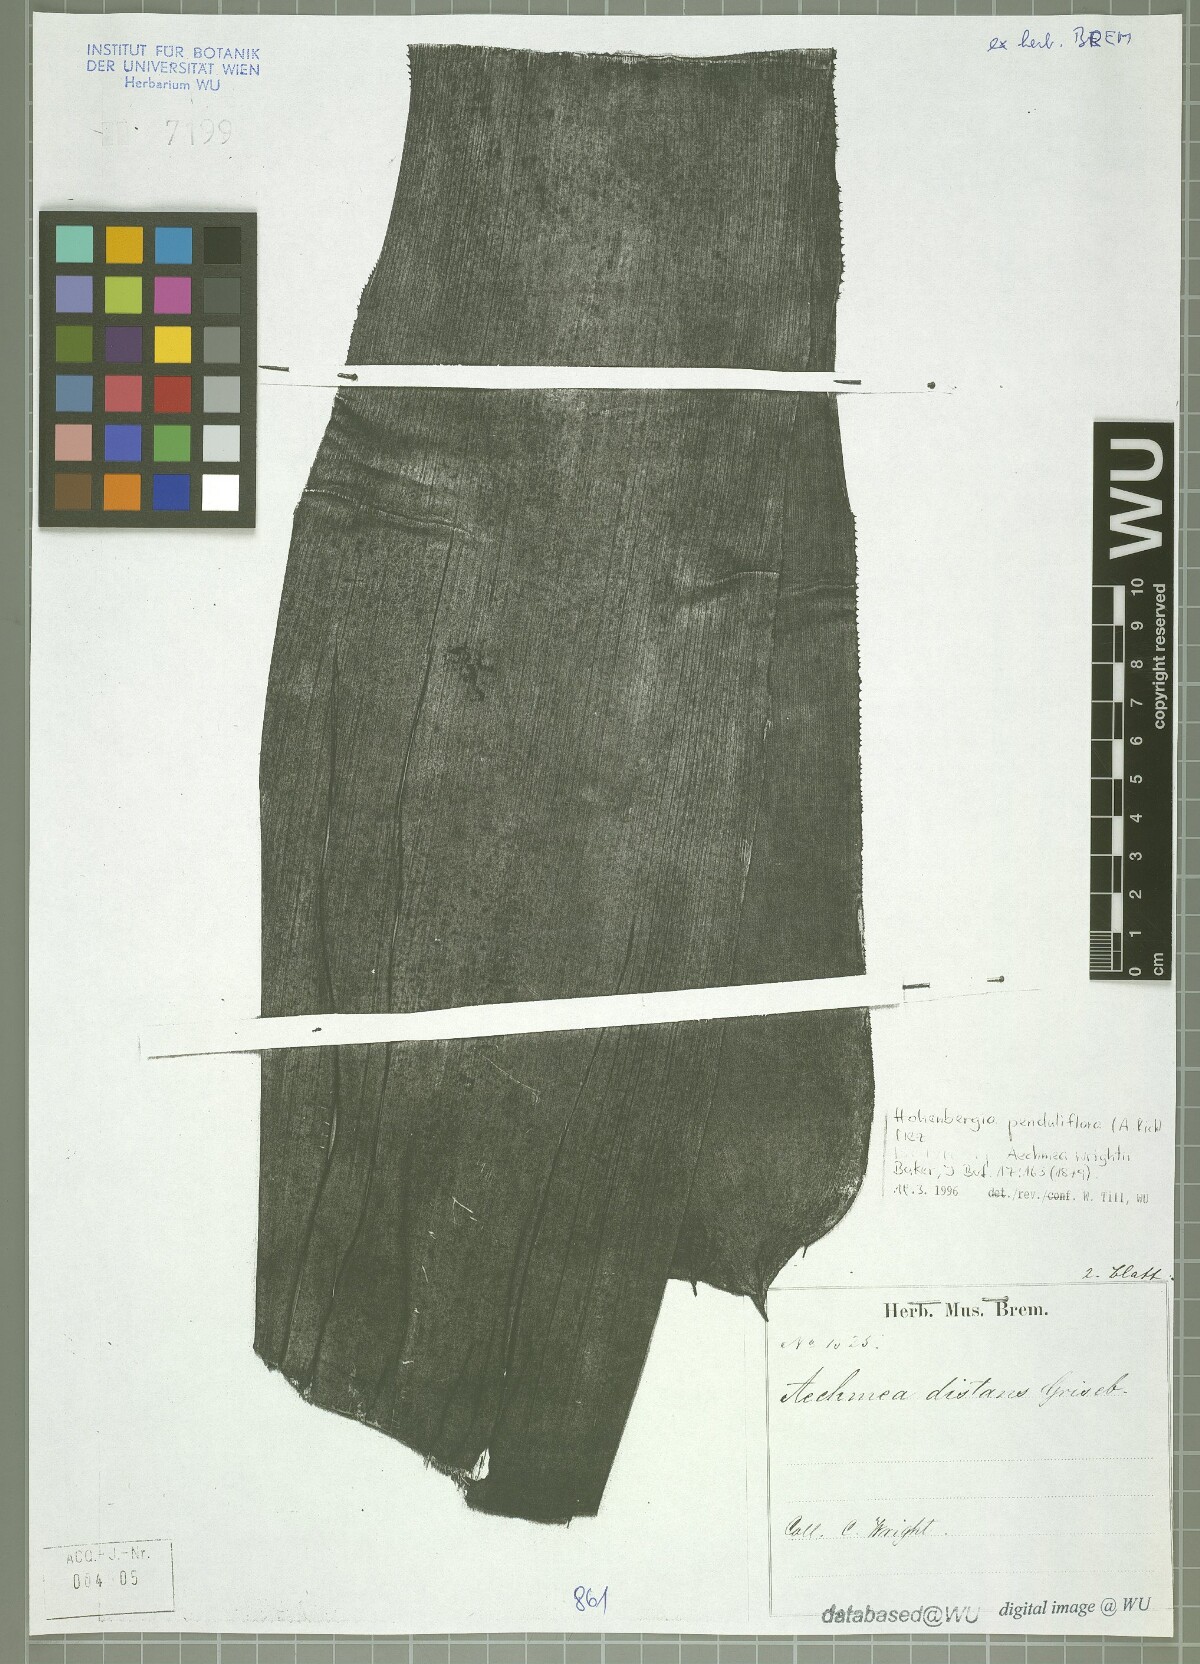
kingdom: Plantae
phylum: Tracheophyta
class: Liliopsida
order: Poales
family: Bromeliaceae
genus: Wittmackia
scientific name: Wittmackia penduliflora
